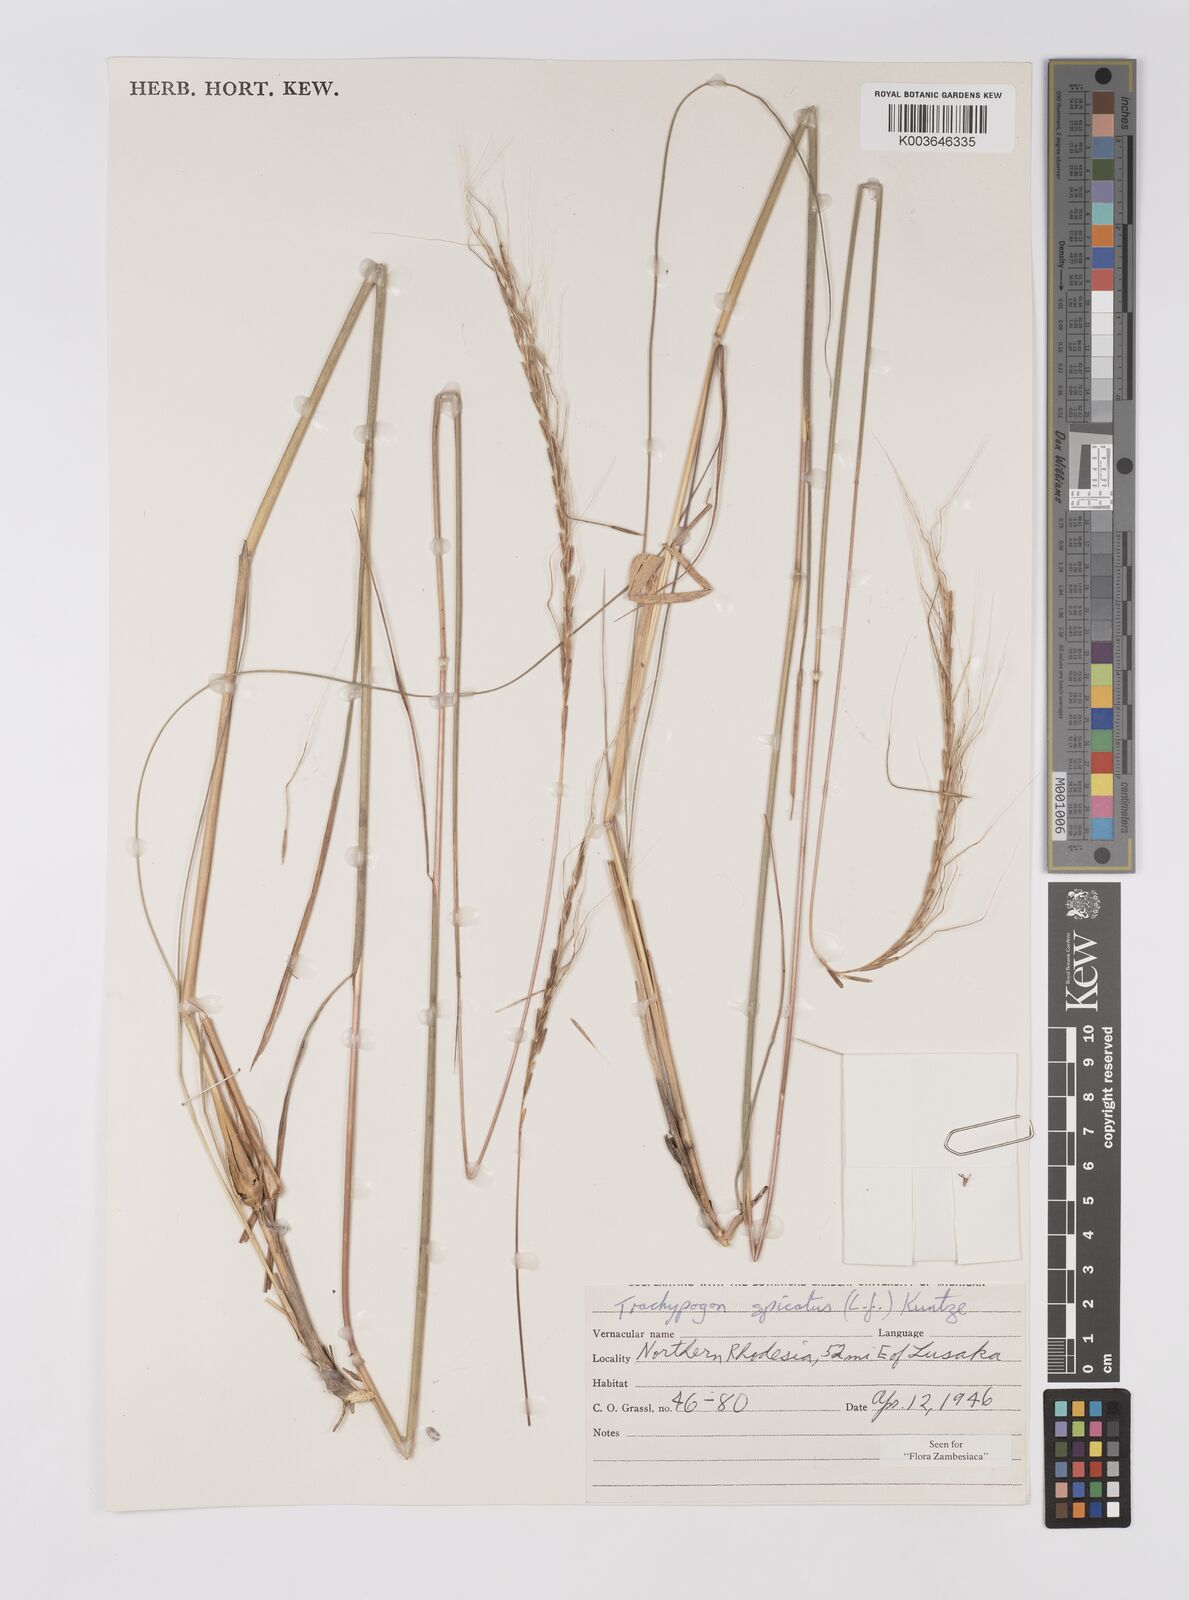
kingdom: Plantae
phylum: Tracheophyta
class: Liliopsida
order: Poales
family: Poaceae
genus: Trachypogon
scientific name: Trachypogon spicatus
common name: Crinkle-awn
